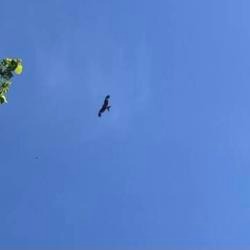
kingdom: Animalia
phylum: Chordata
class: Aves
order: Accipitriformes
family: Accipitridae
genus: Milvus
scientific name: Milvus milvus
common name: Rød glente
